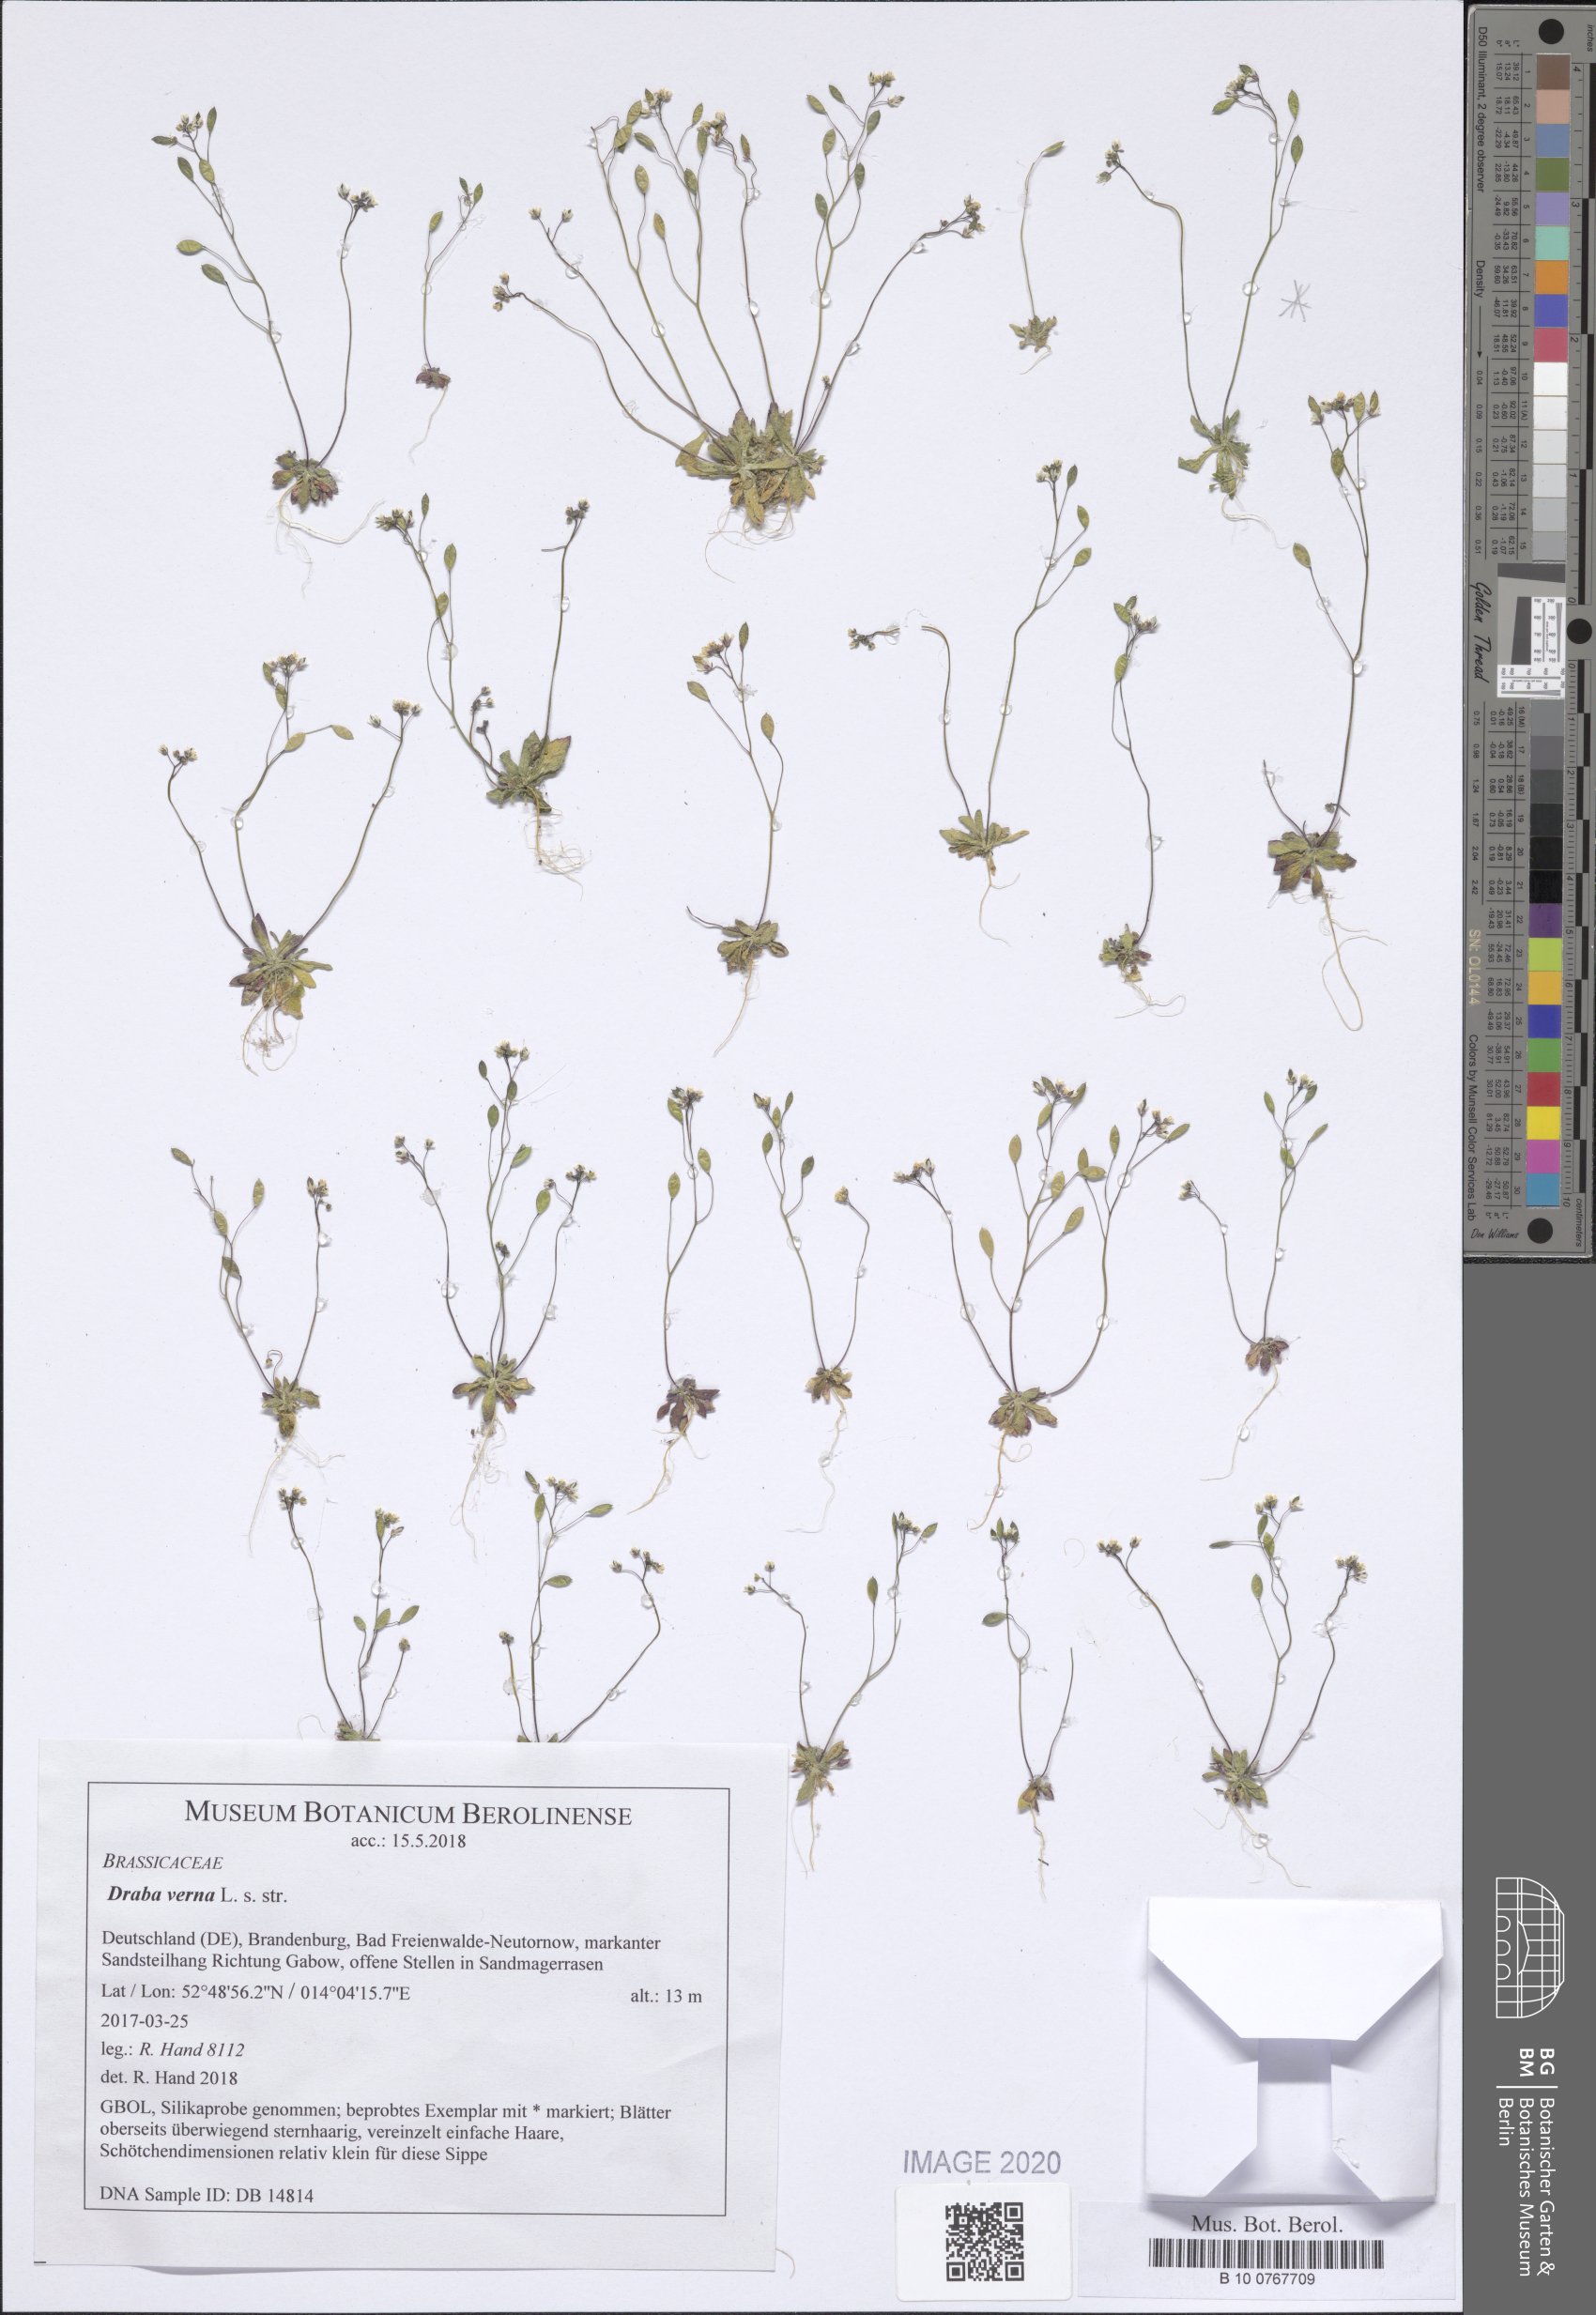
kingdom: Plantae
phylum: Tracheophyta
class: Magnoliopsida
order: Brassicales
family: Brassicaceae
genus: Draba
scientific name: Draba verna
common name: Spring draba
